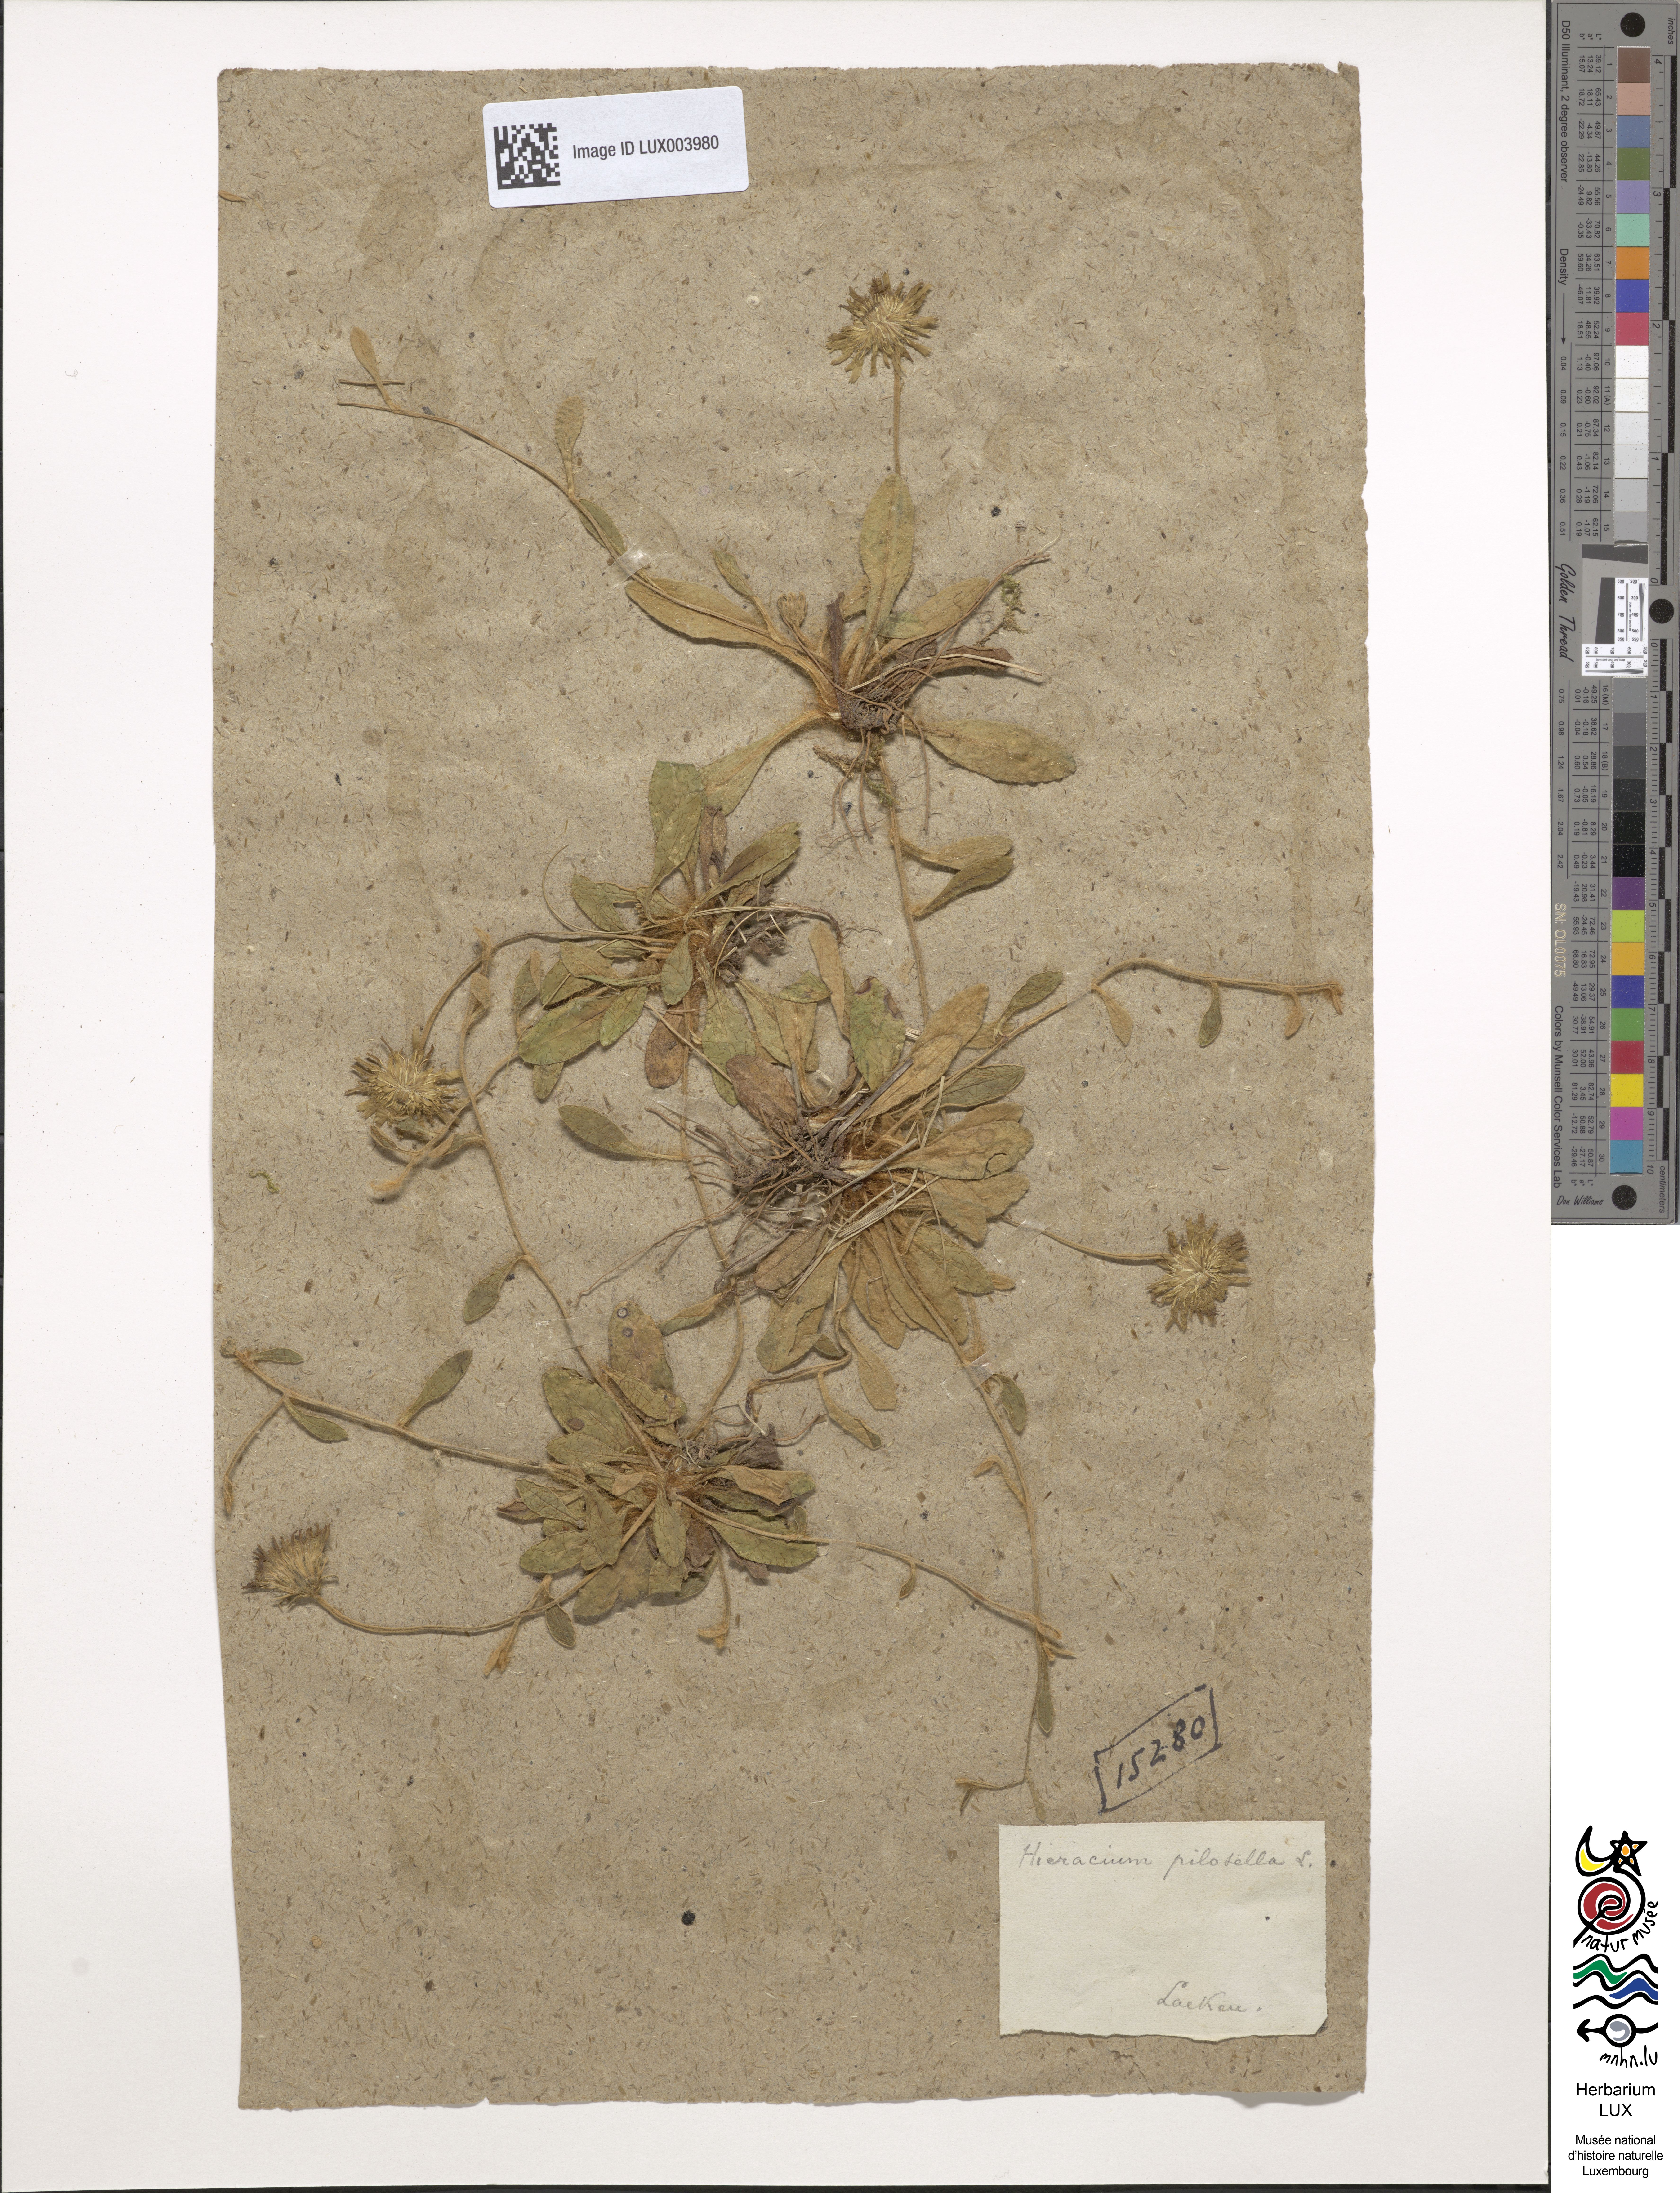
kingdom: Plantae
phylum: Tracheophyta
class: Magnoliopsida
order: Asterales
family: Asteraceae
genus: Pilosella
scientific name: Pilosella officinarum
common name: Mouse-ear hawkweed
